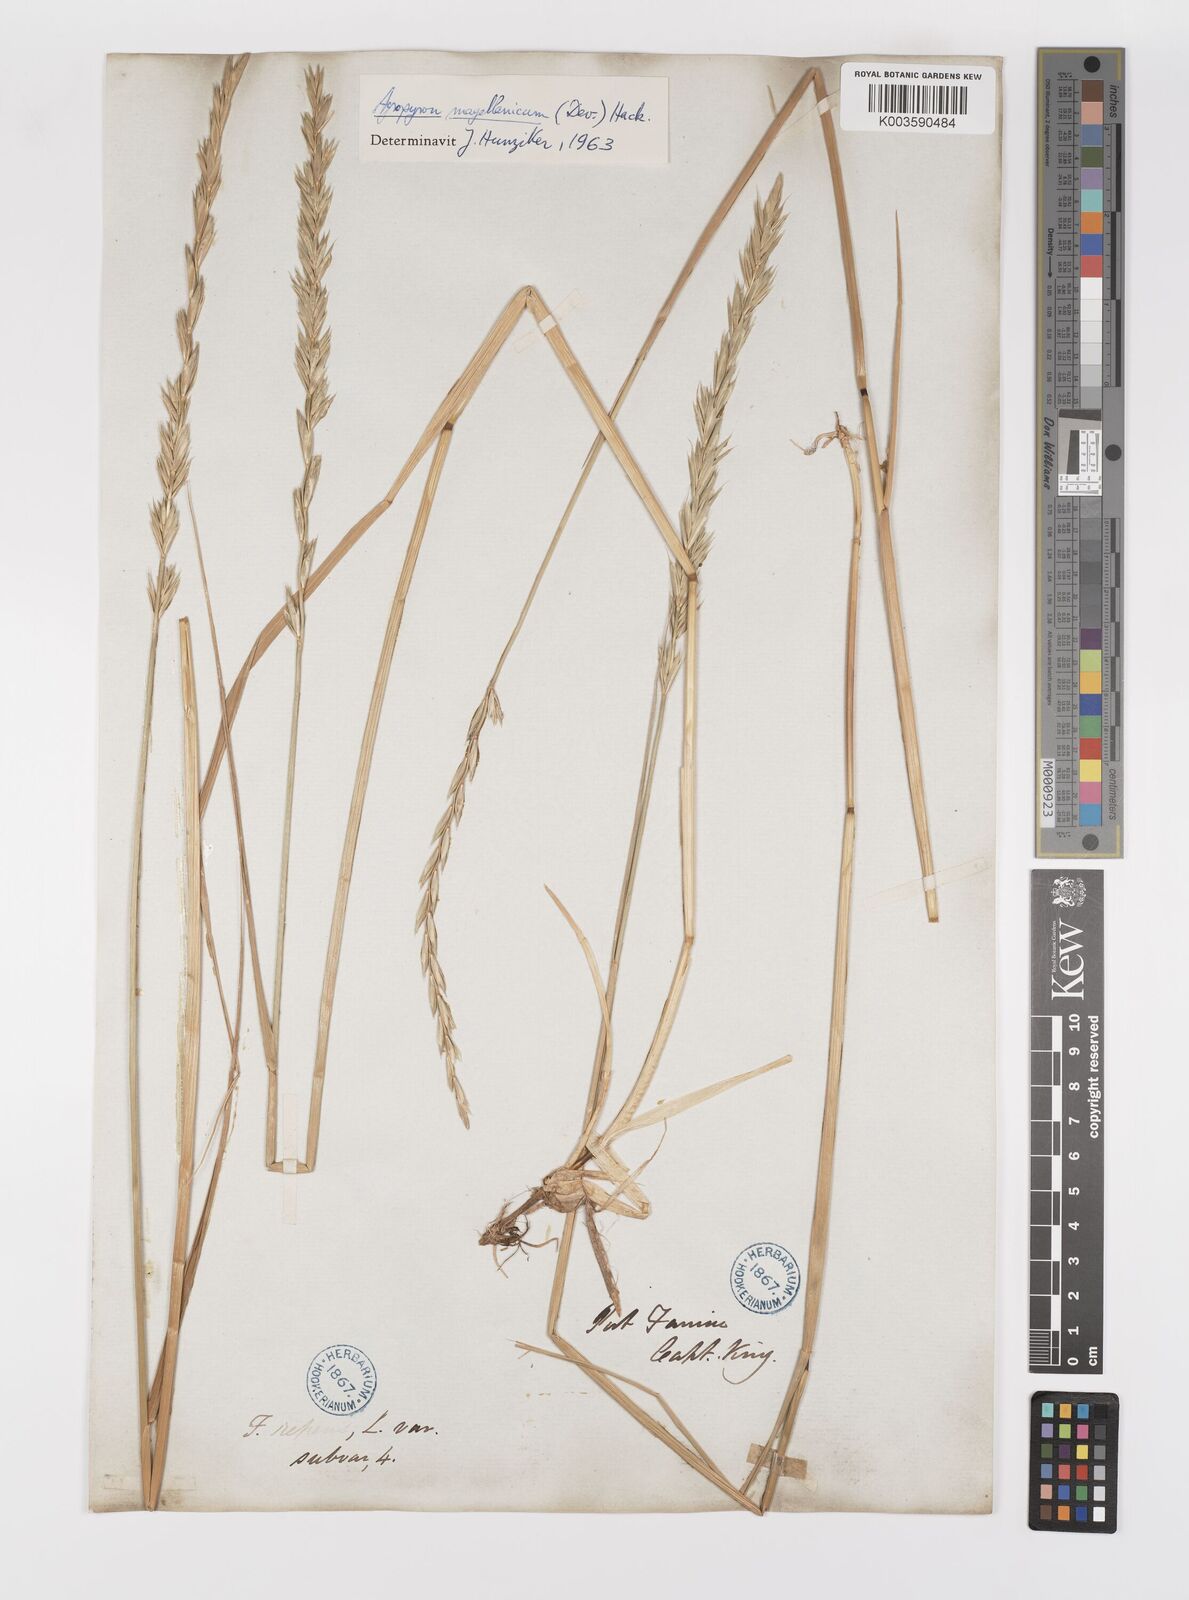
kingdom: Plantae
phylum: Tracheophyta
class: Liliopsida
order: Poales
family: Poaceae
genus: Elymus
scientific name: Elymus magellanicus
